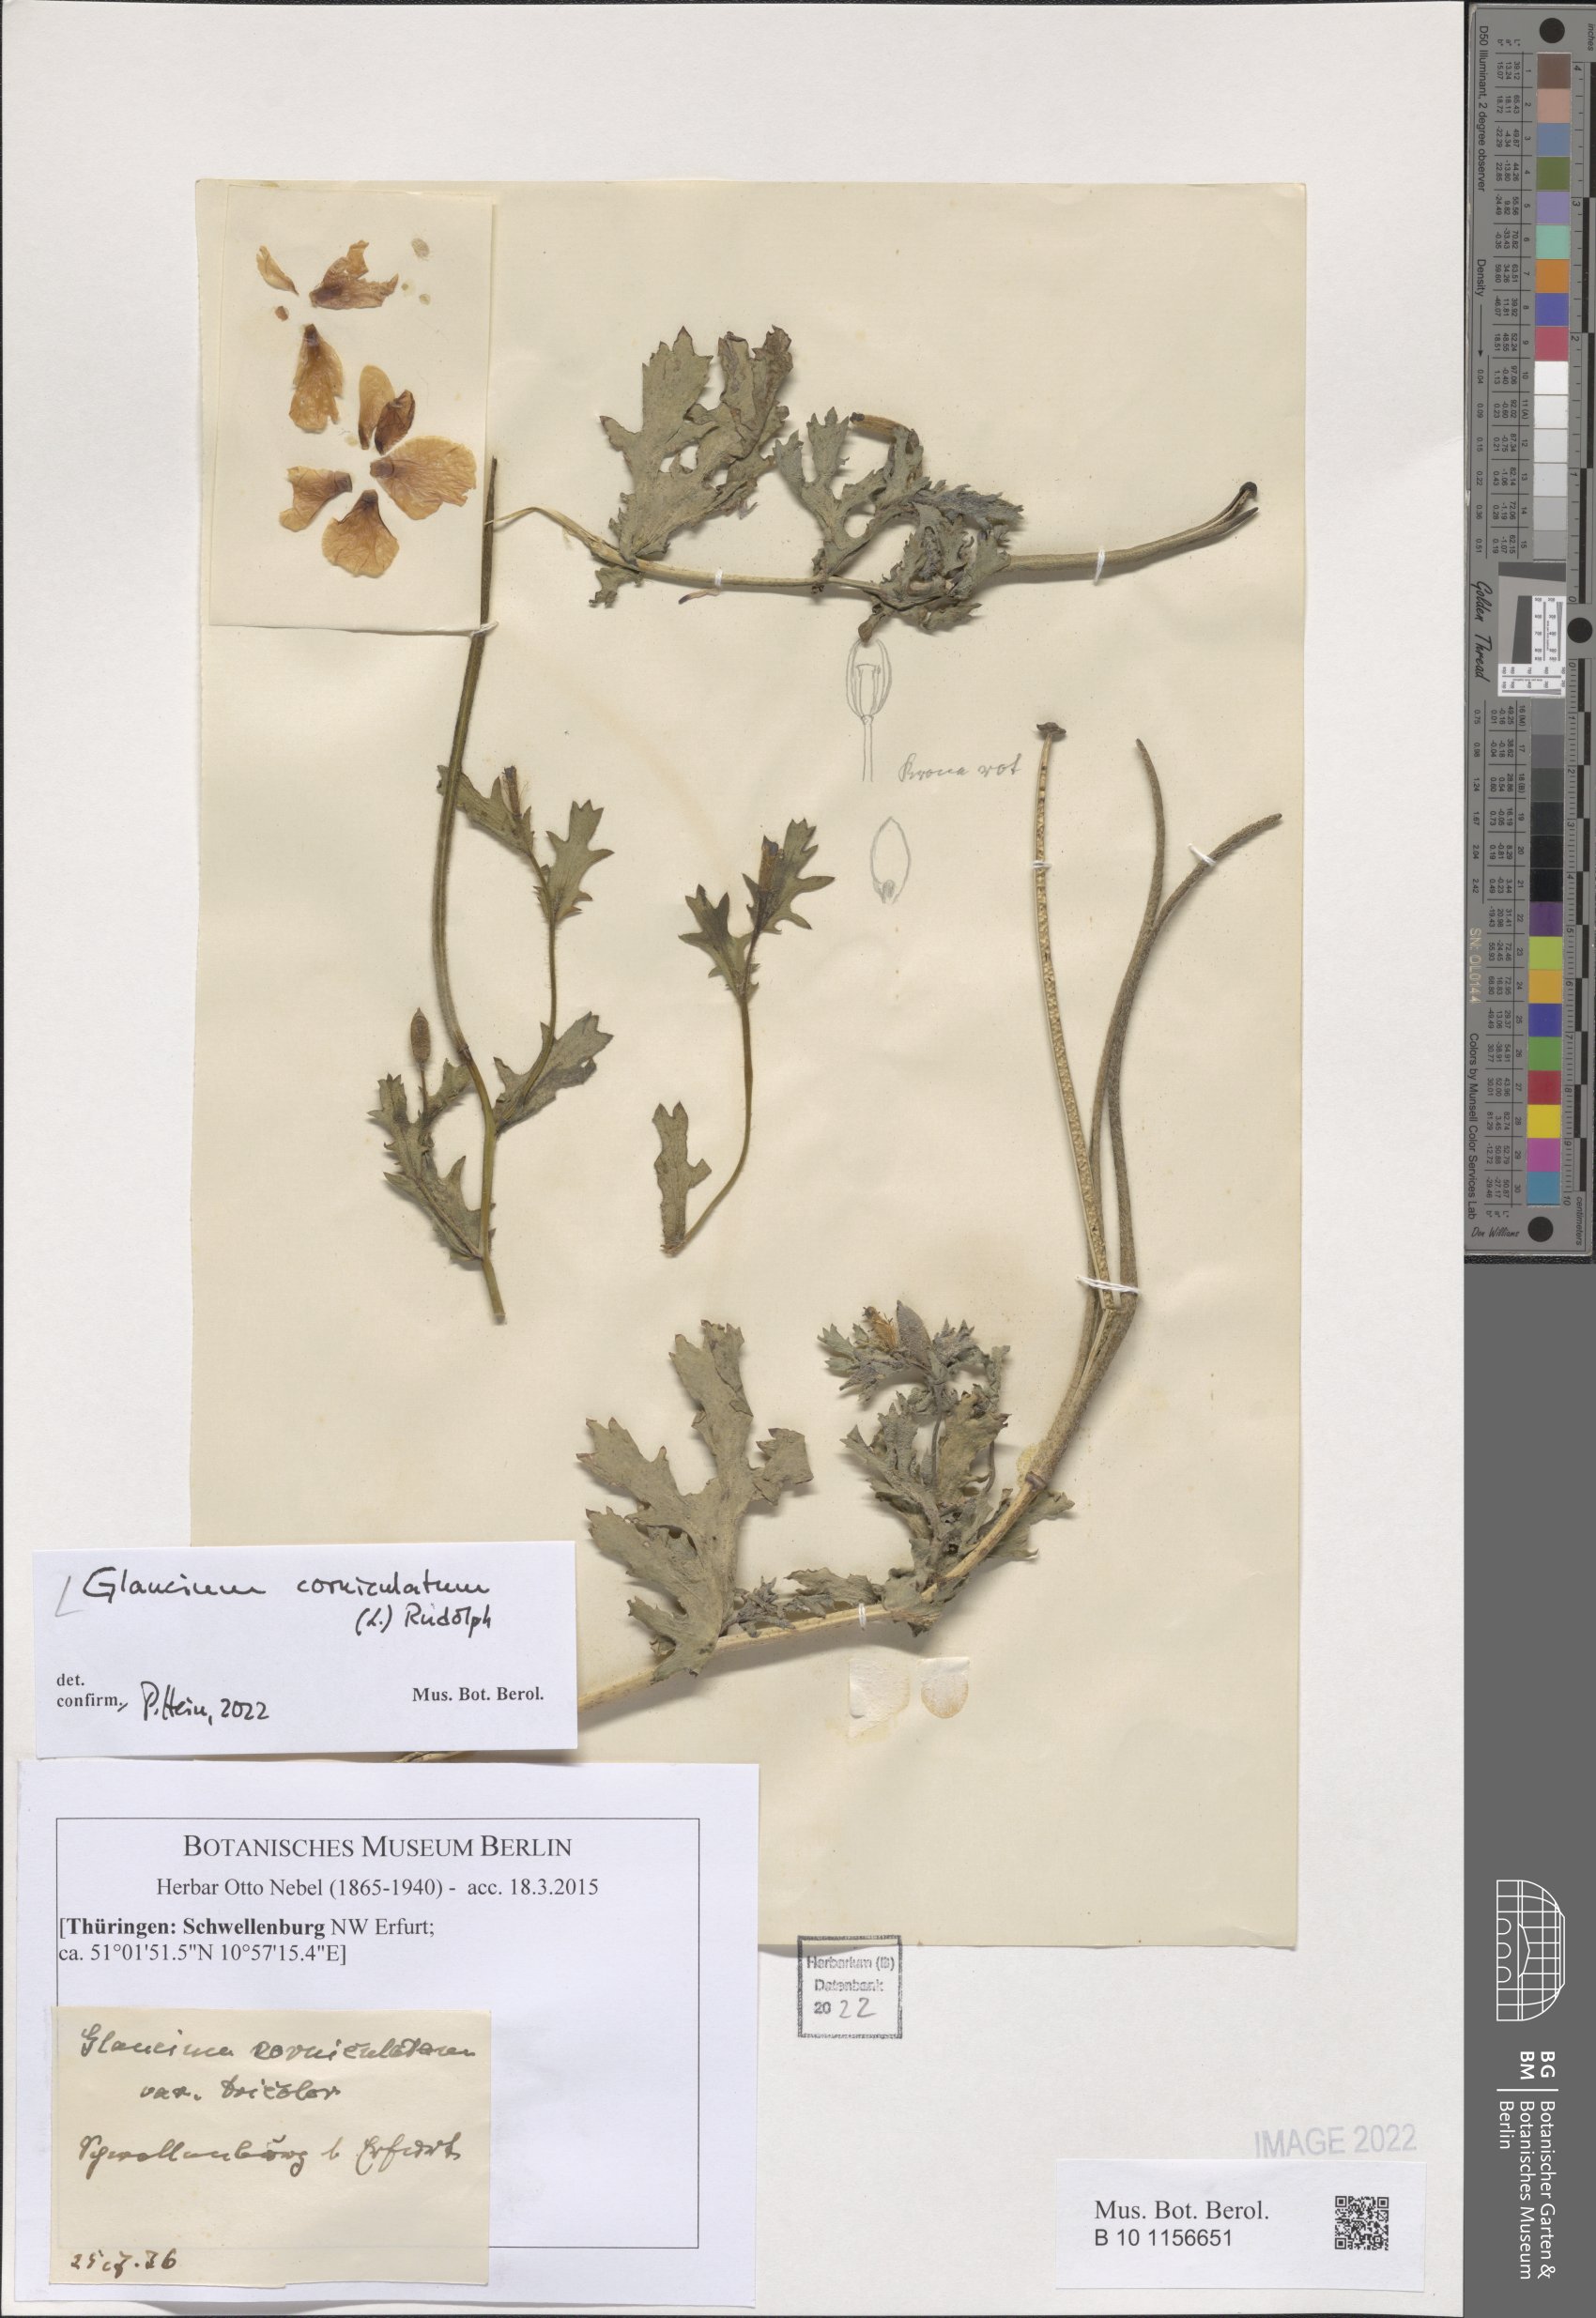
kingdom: Plantae
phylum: Tracheophyta
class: Magnoliopsida
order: Ranunculales
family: Papaveraceae
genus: Glaucium
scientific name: Glaucium corniculatum
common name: Red horned-poppy
